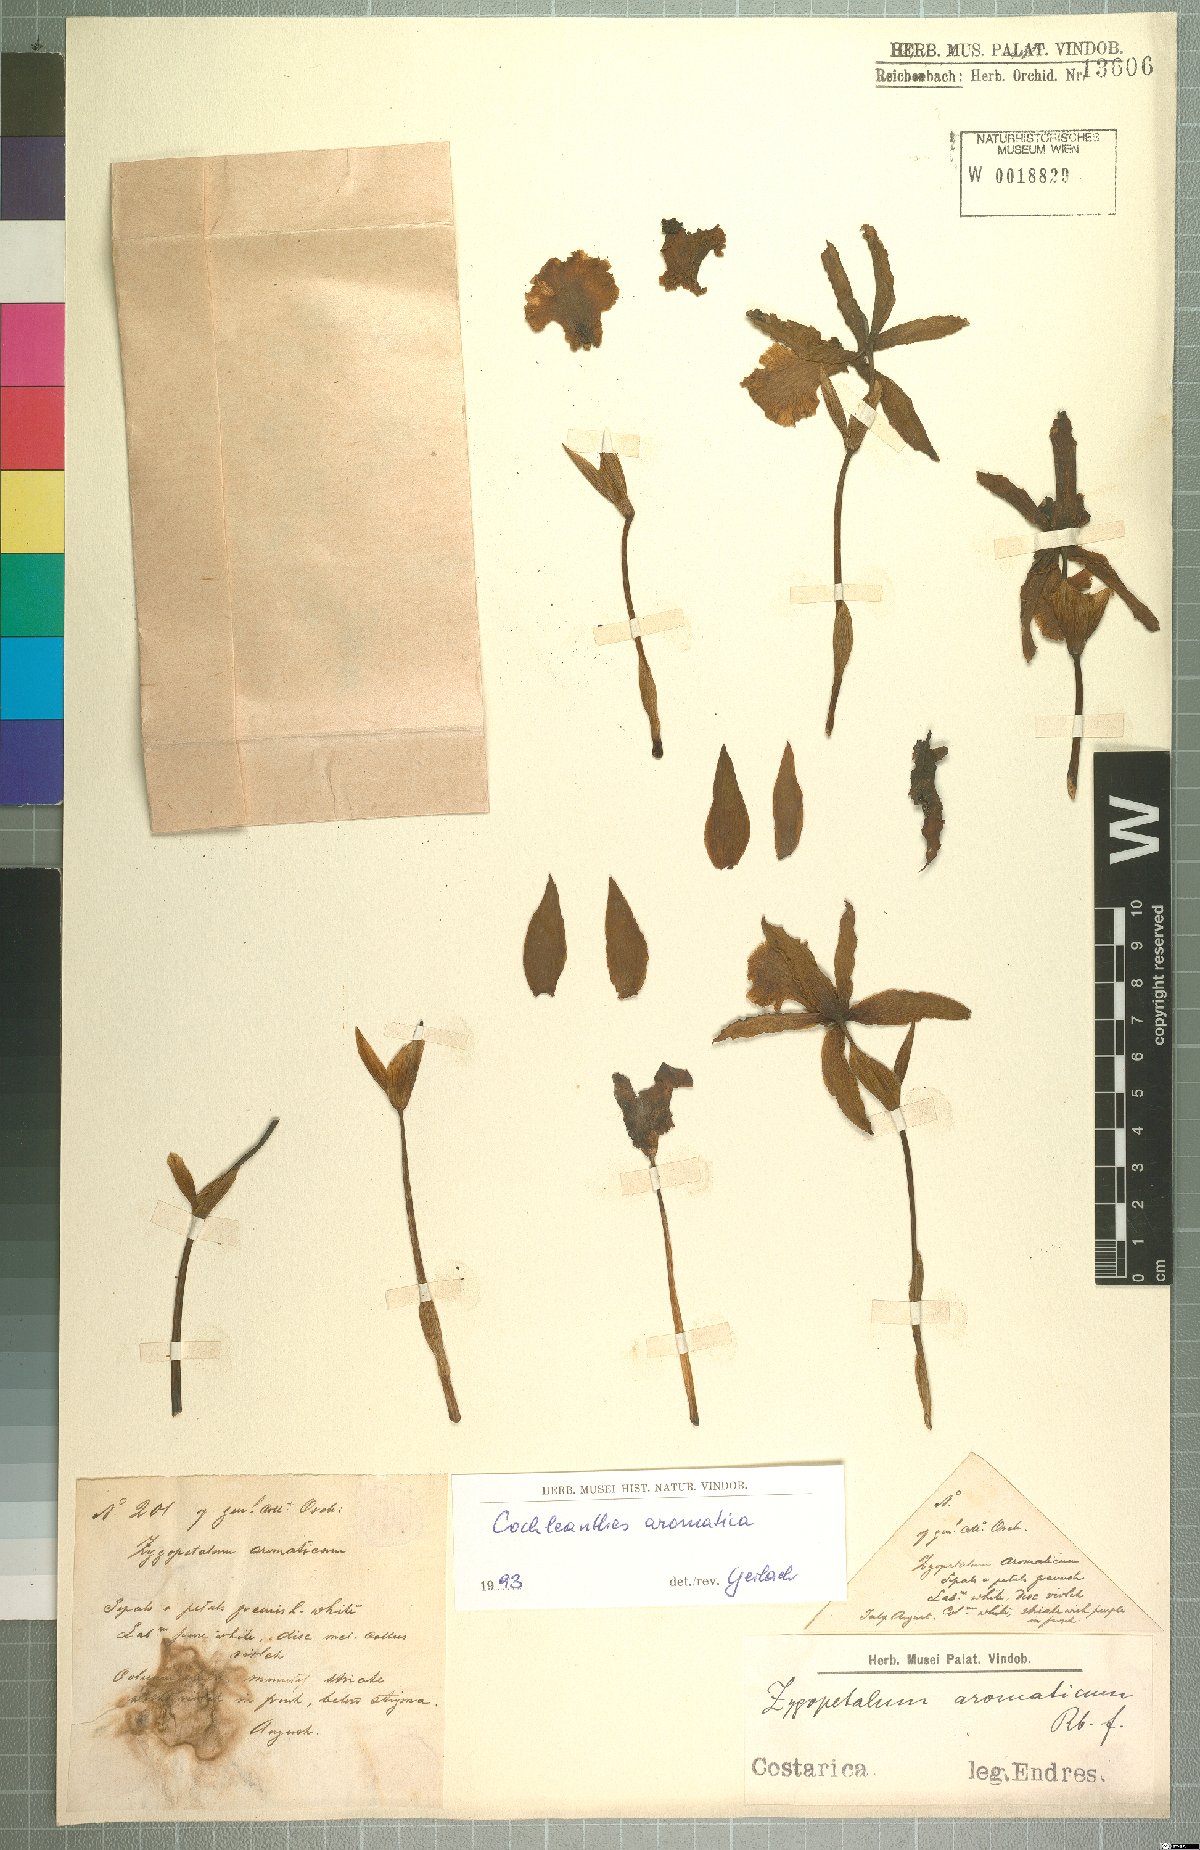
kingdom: Plantae
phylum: Tracheophyta
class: Liliopsida
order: Asparagales
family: Orchidaceae
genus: Cochleanthes
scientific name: Cochleanthes aromatica
